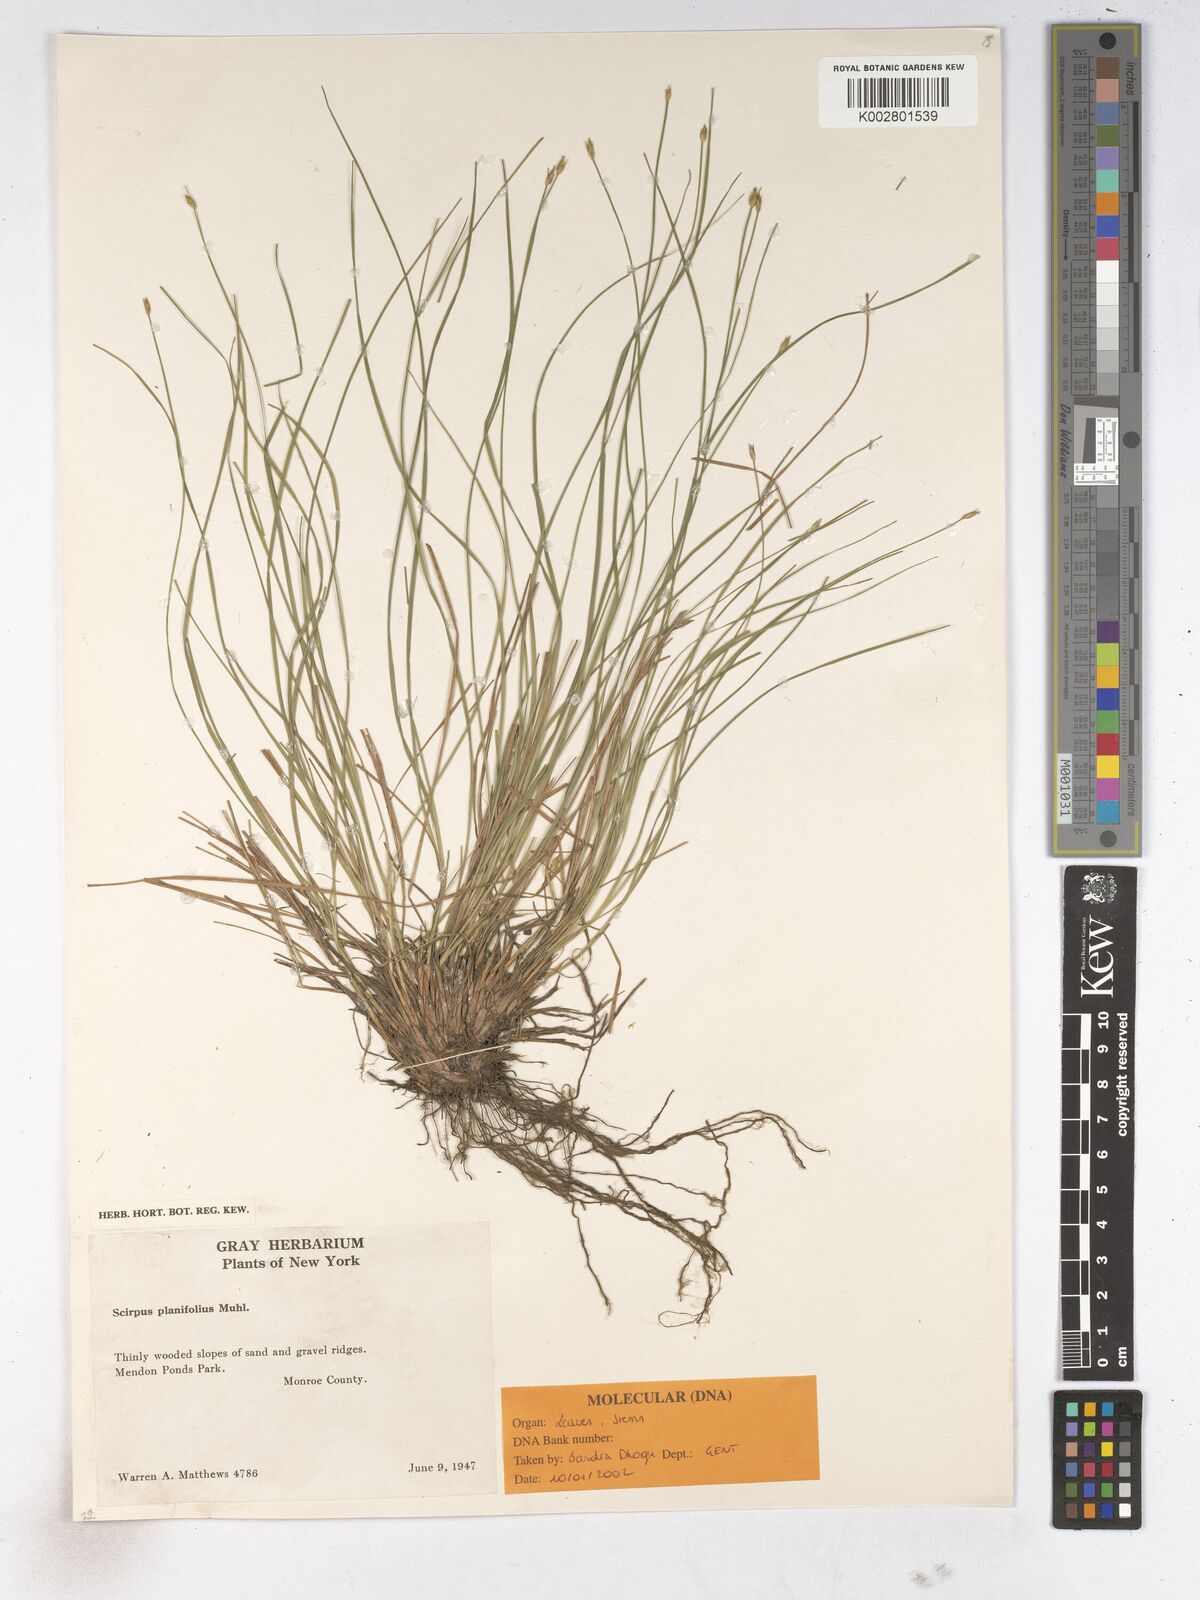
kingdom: Plantae
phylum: Tracheophyta
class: Liliopsida
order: Poales
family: Cyperaceae
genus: Trichophorum
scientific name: Trichophorum planifolium
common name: Bashful bulrush
